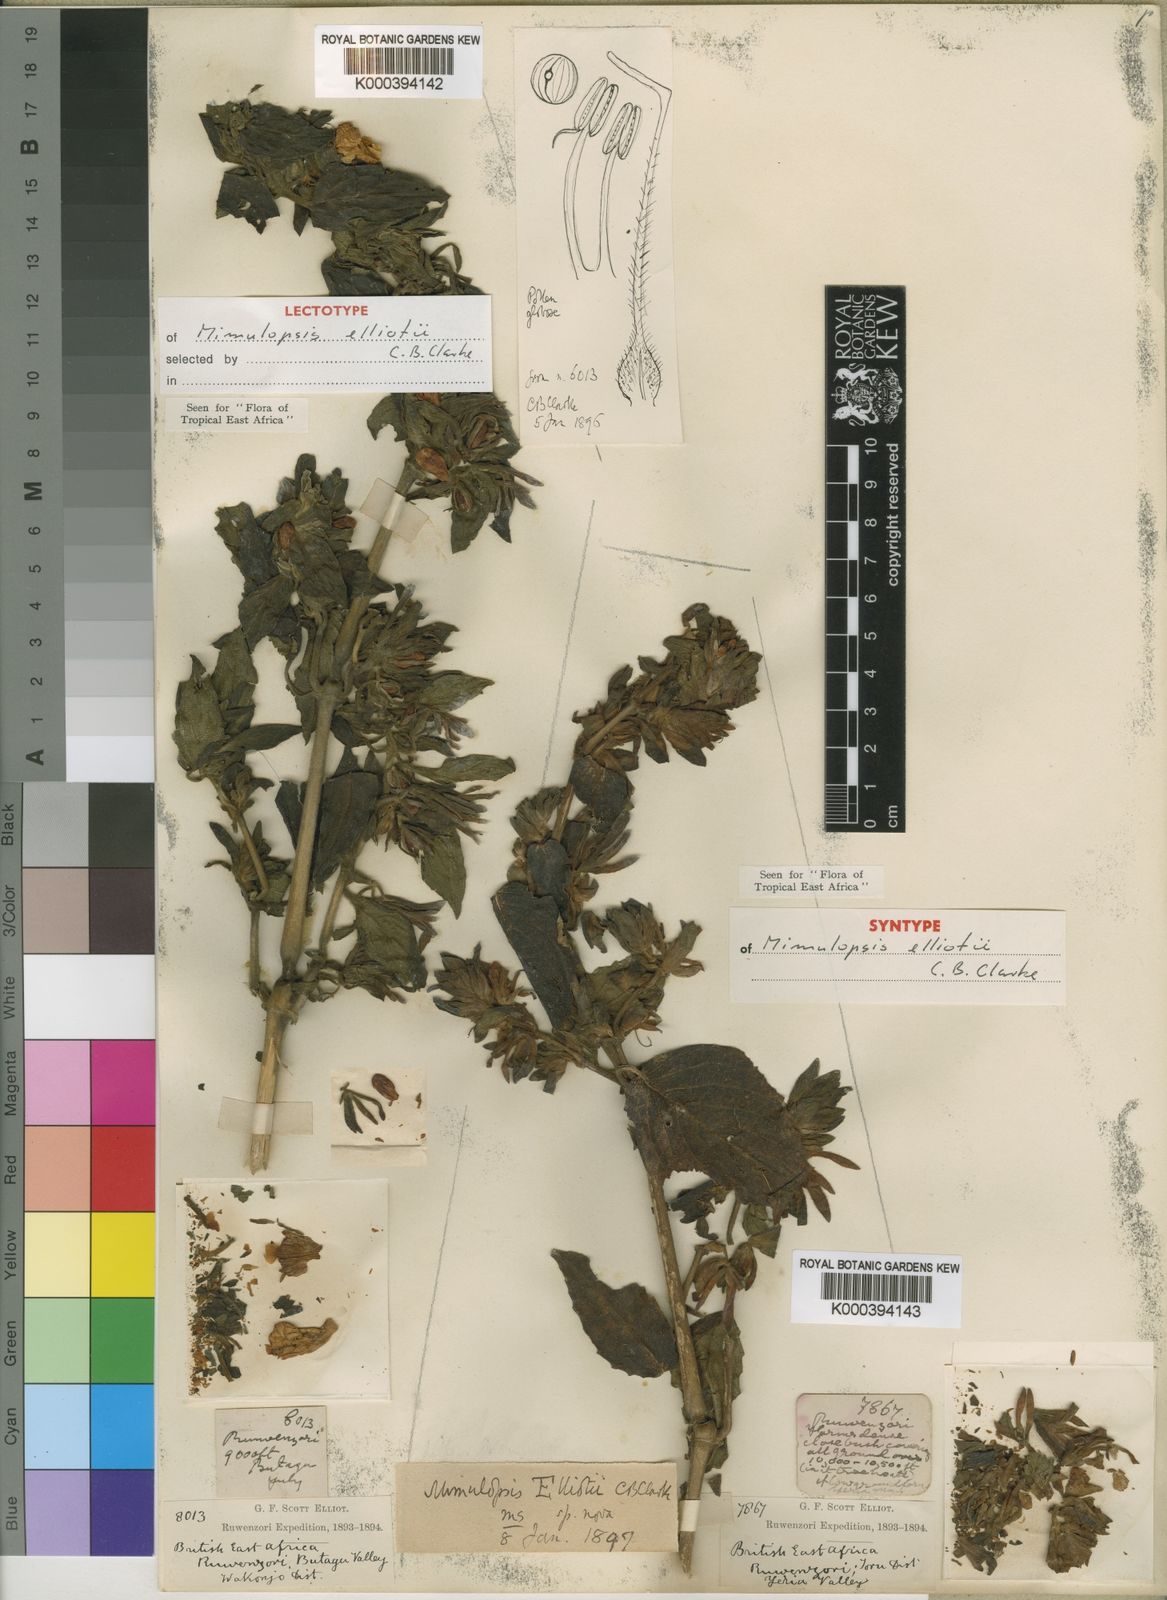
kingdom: Plantae
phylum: Tracheophyta
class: Magnoliopsida
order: Lamiales
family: Acanthaceae
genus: Mimulopsis
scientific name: Mimulopsis elliotii
